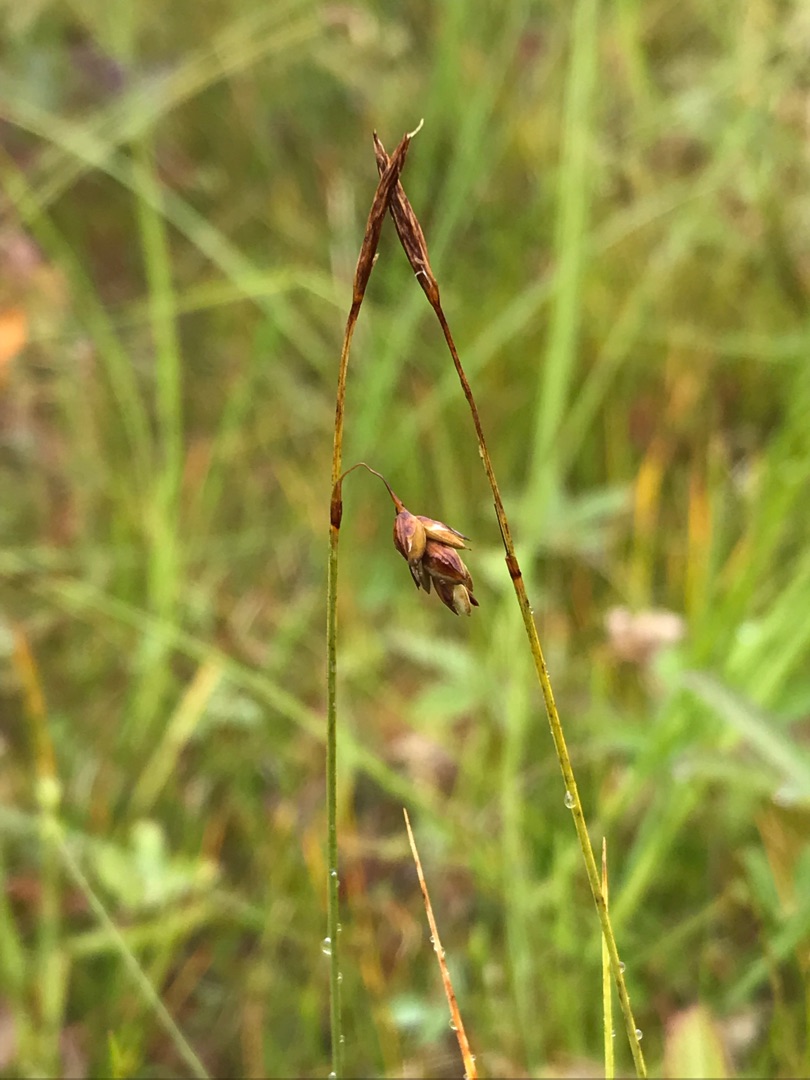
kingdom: Plantae
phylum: Tracheophyta
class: Liliopsida
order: Poales
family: Cyperaceae
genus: Carex
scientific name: Carex limosa
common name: Dynd-star
